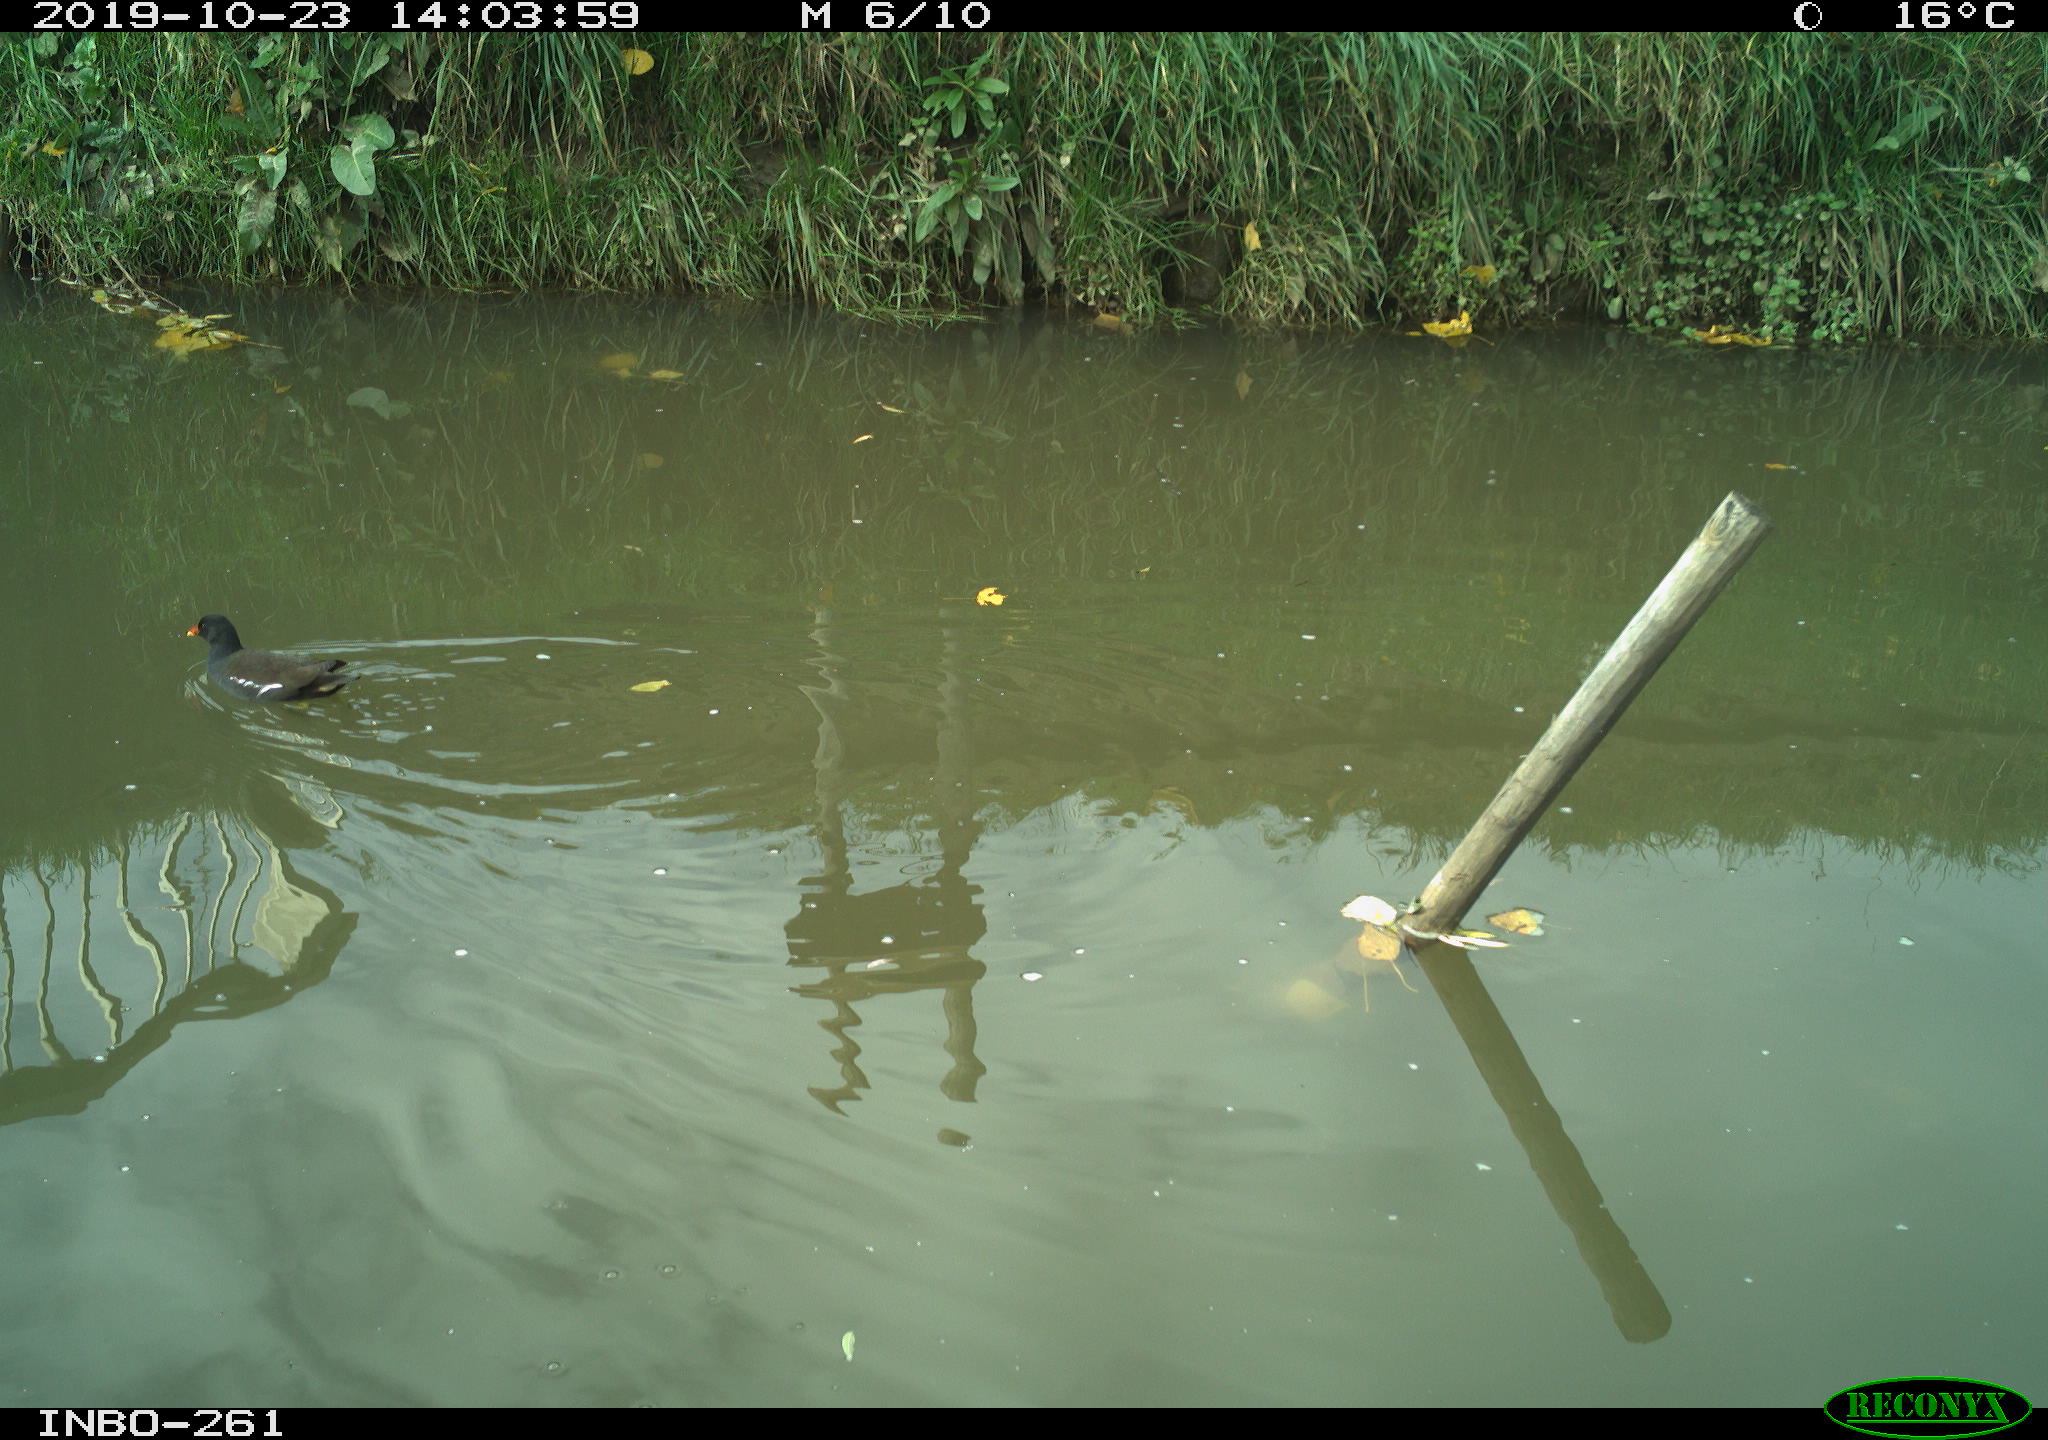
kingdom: Animalia
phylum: Chordata
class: Aves
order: Gruiformes
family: Rallidae
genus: Gallinula
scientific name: Gallinula chloropus
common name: Common moorhen
